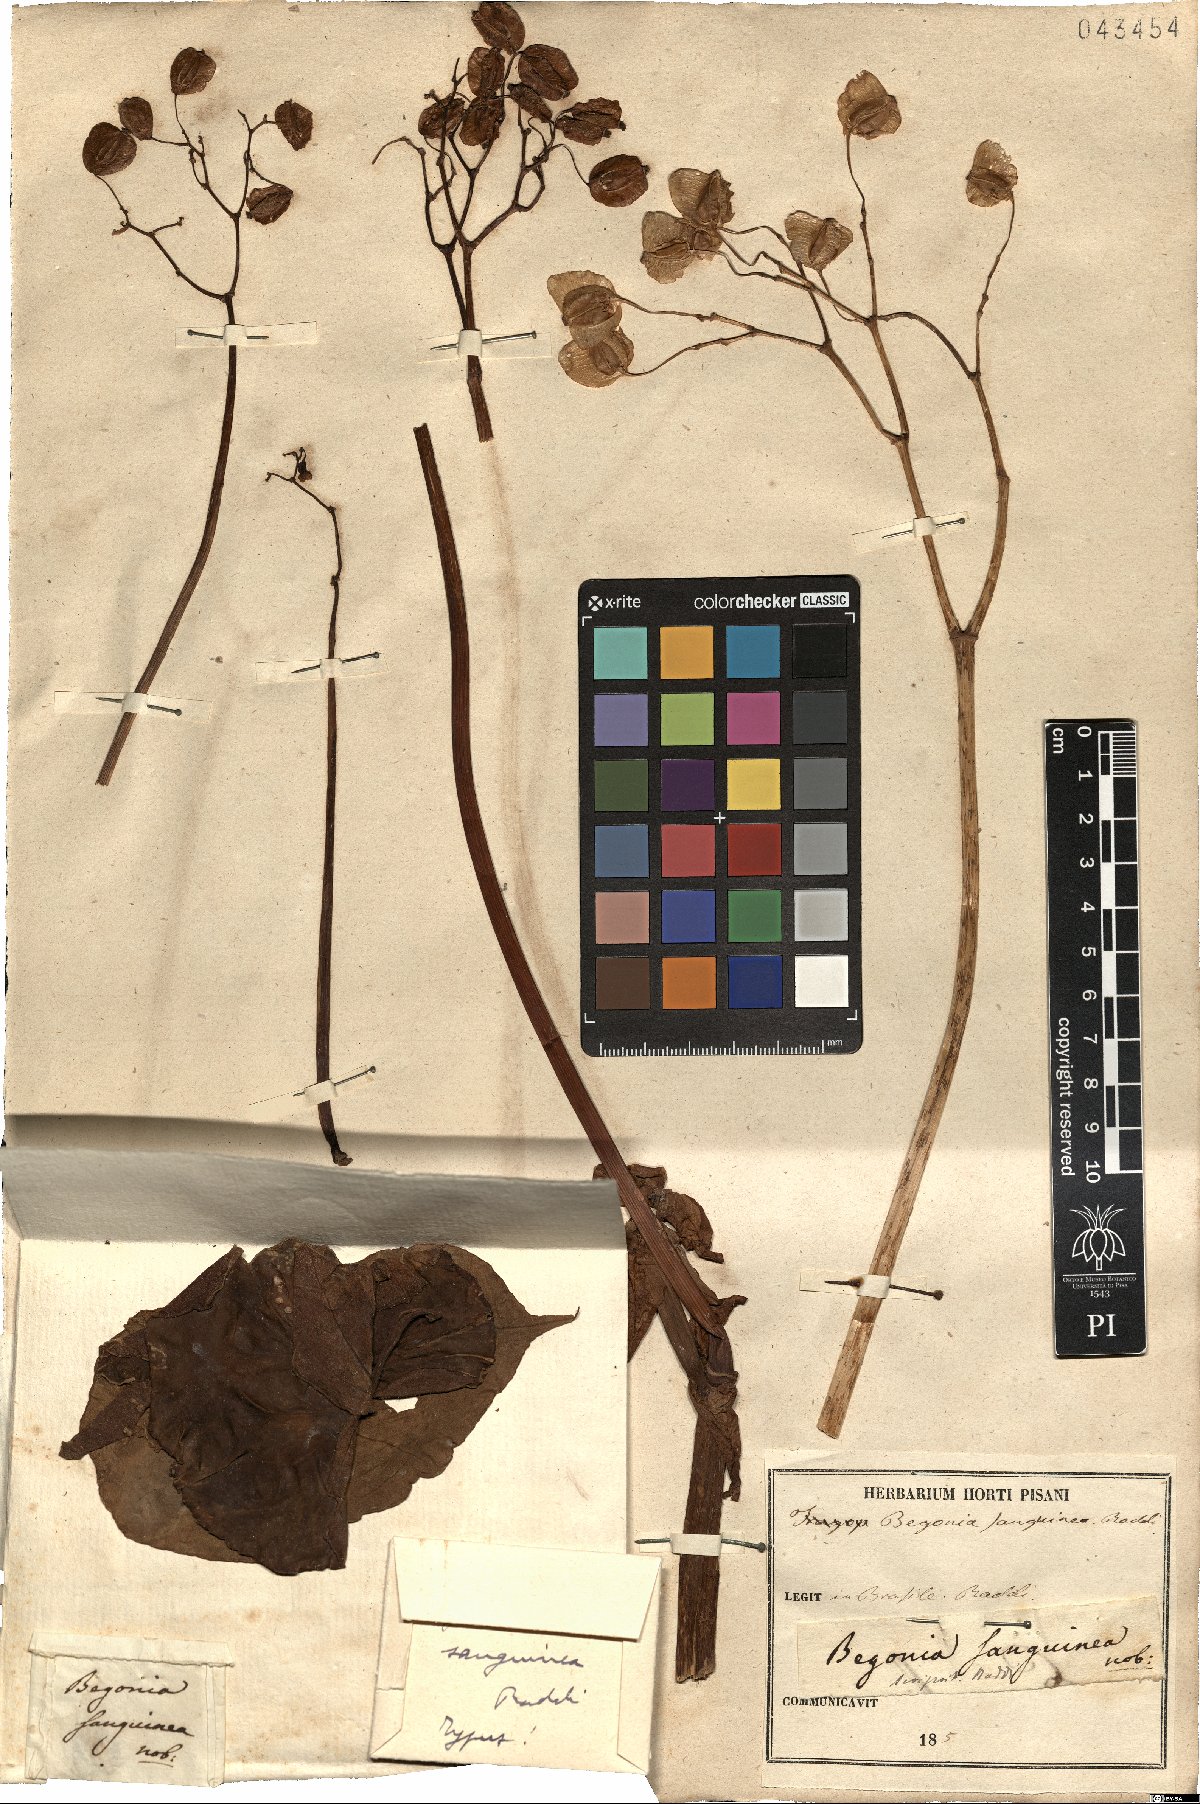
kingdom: Plantae
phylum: Tracheophyta
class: Magnoliopsida
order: Cucurbitales
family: Begoniaceae
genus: Begonia
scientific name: Begonia sanguinea
